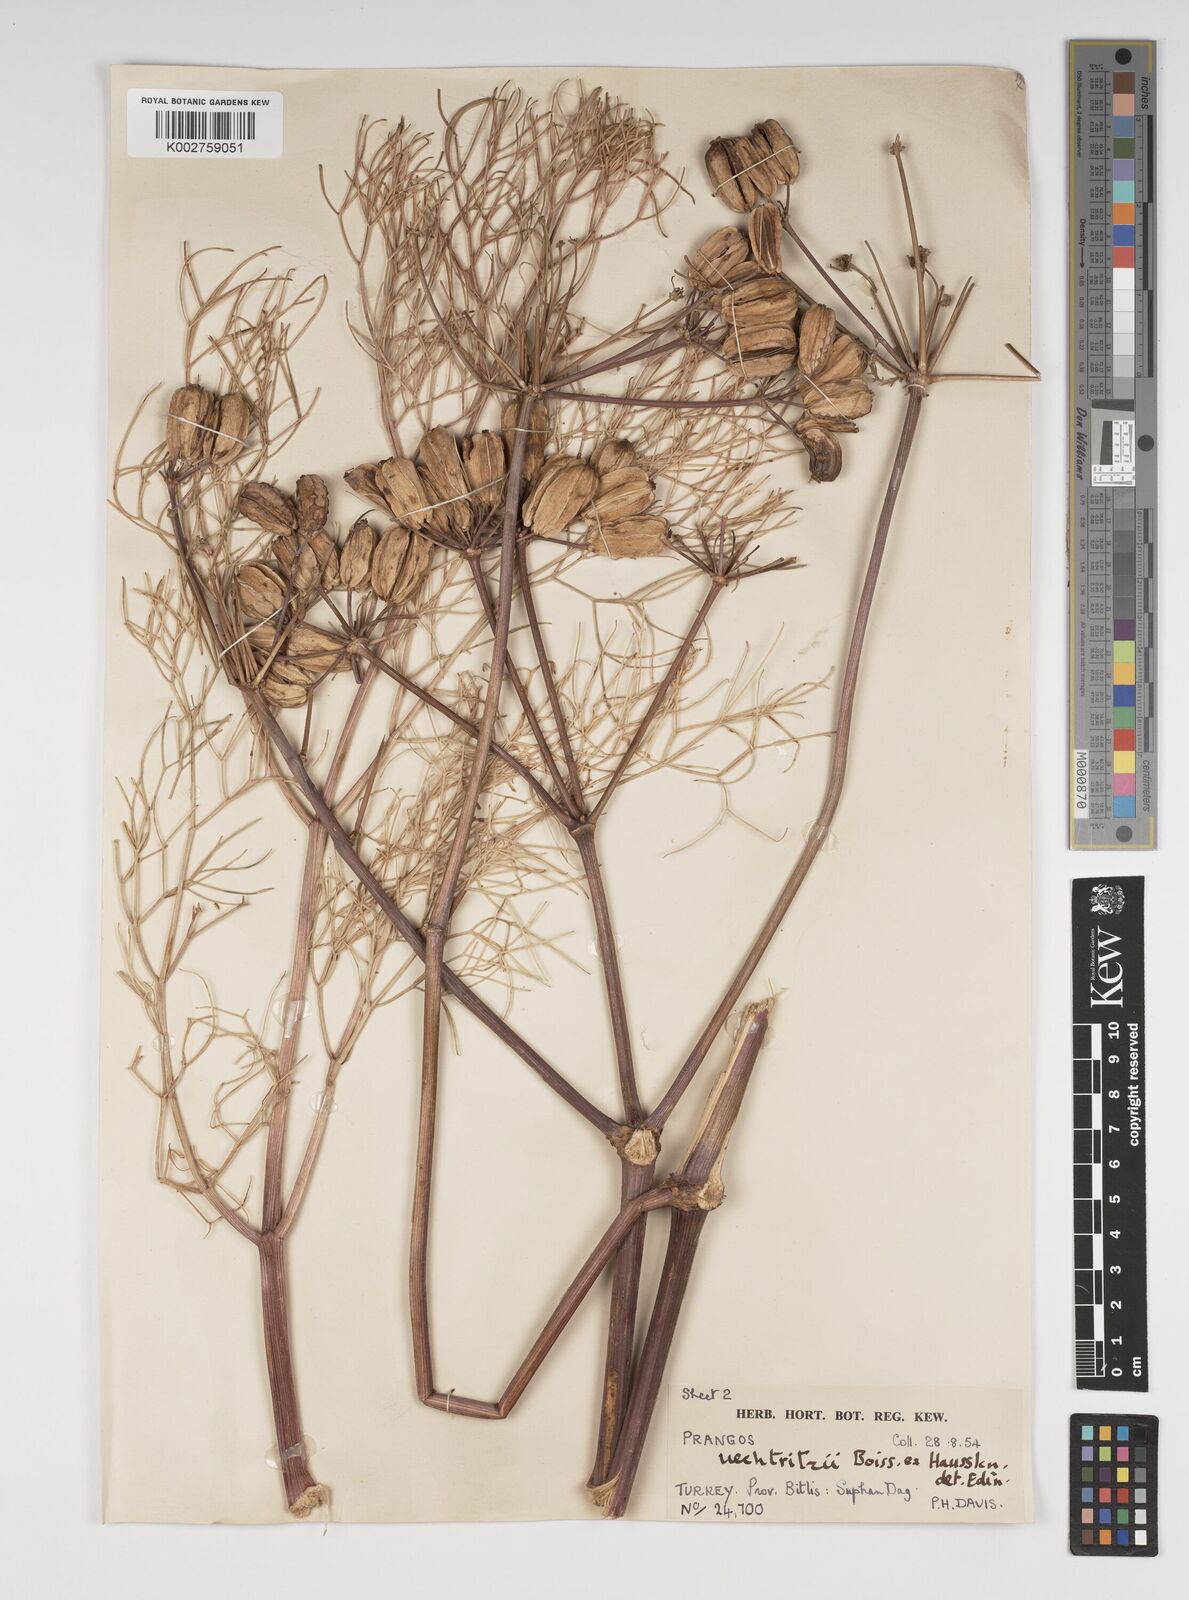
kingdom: Plantae
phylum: Tracheophyta
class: Magnoliopsida
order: Apiales
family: Apiaceae
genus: Prangos
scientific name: Prangos uechtritzii
